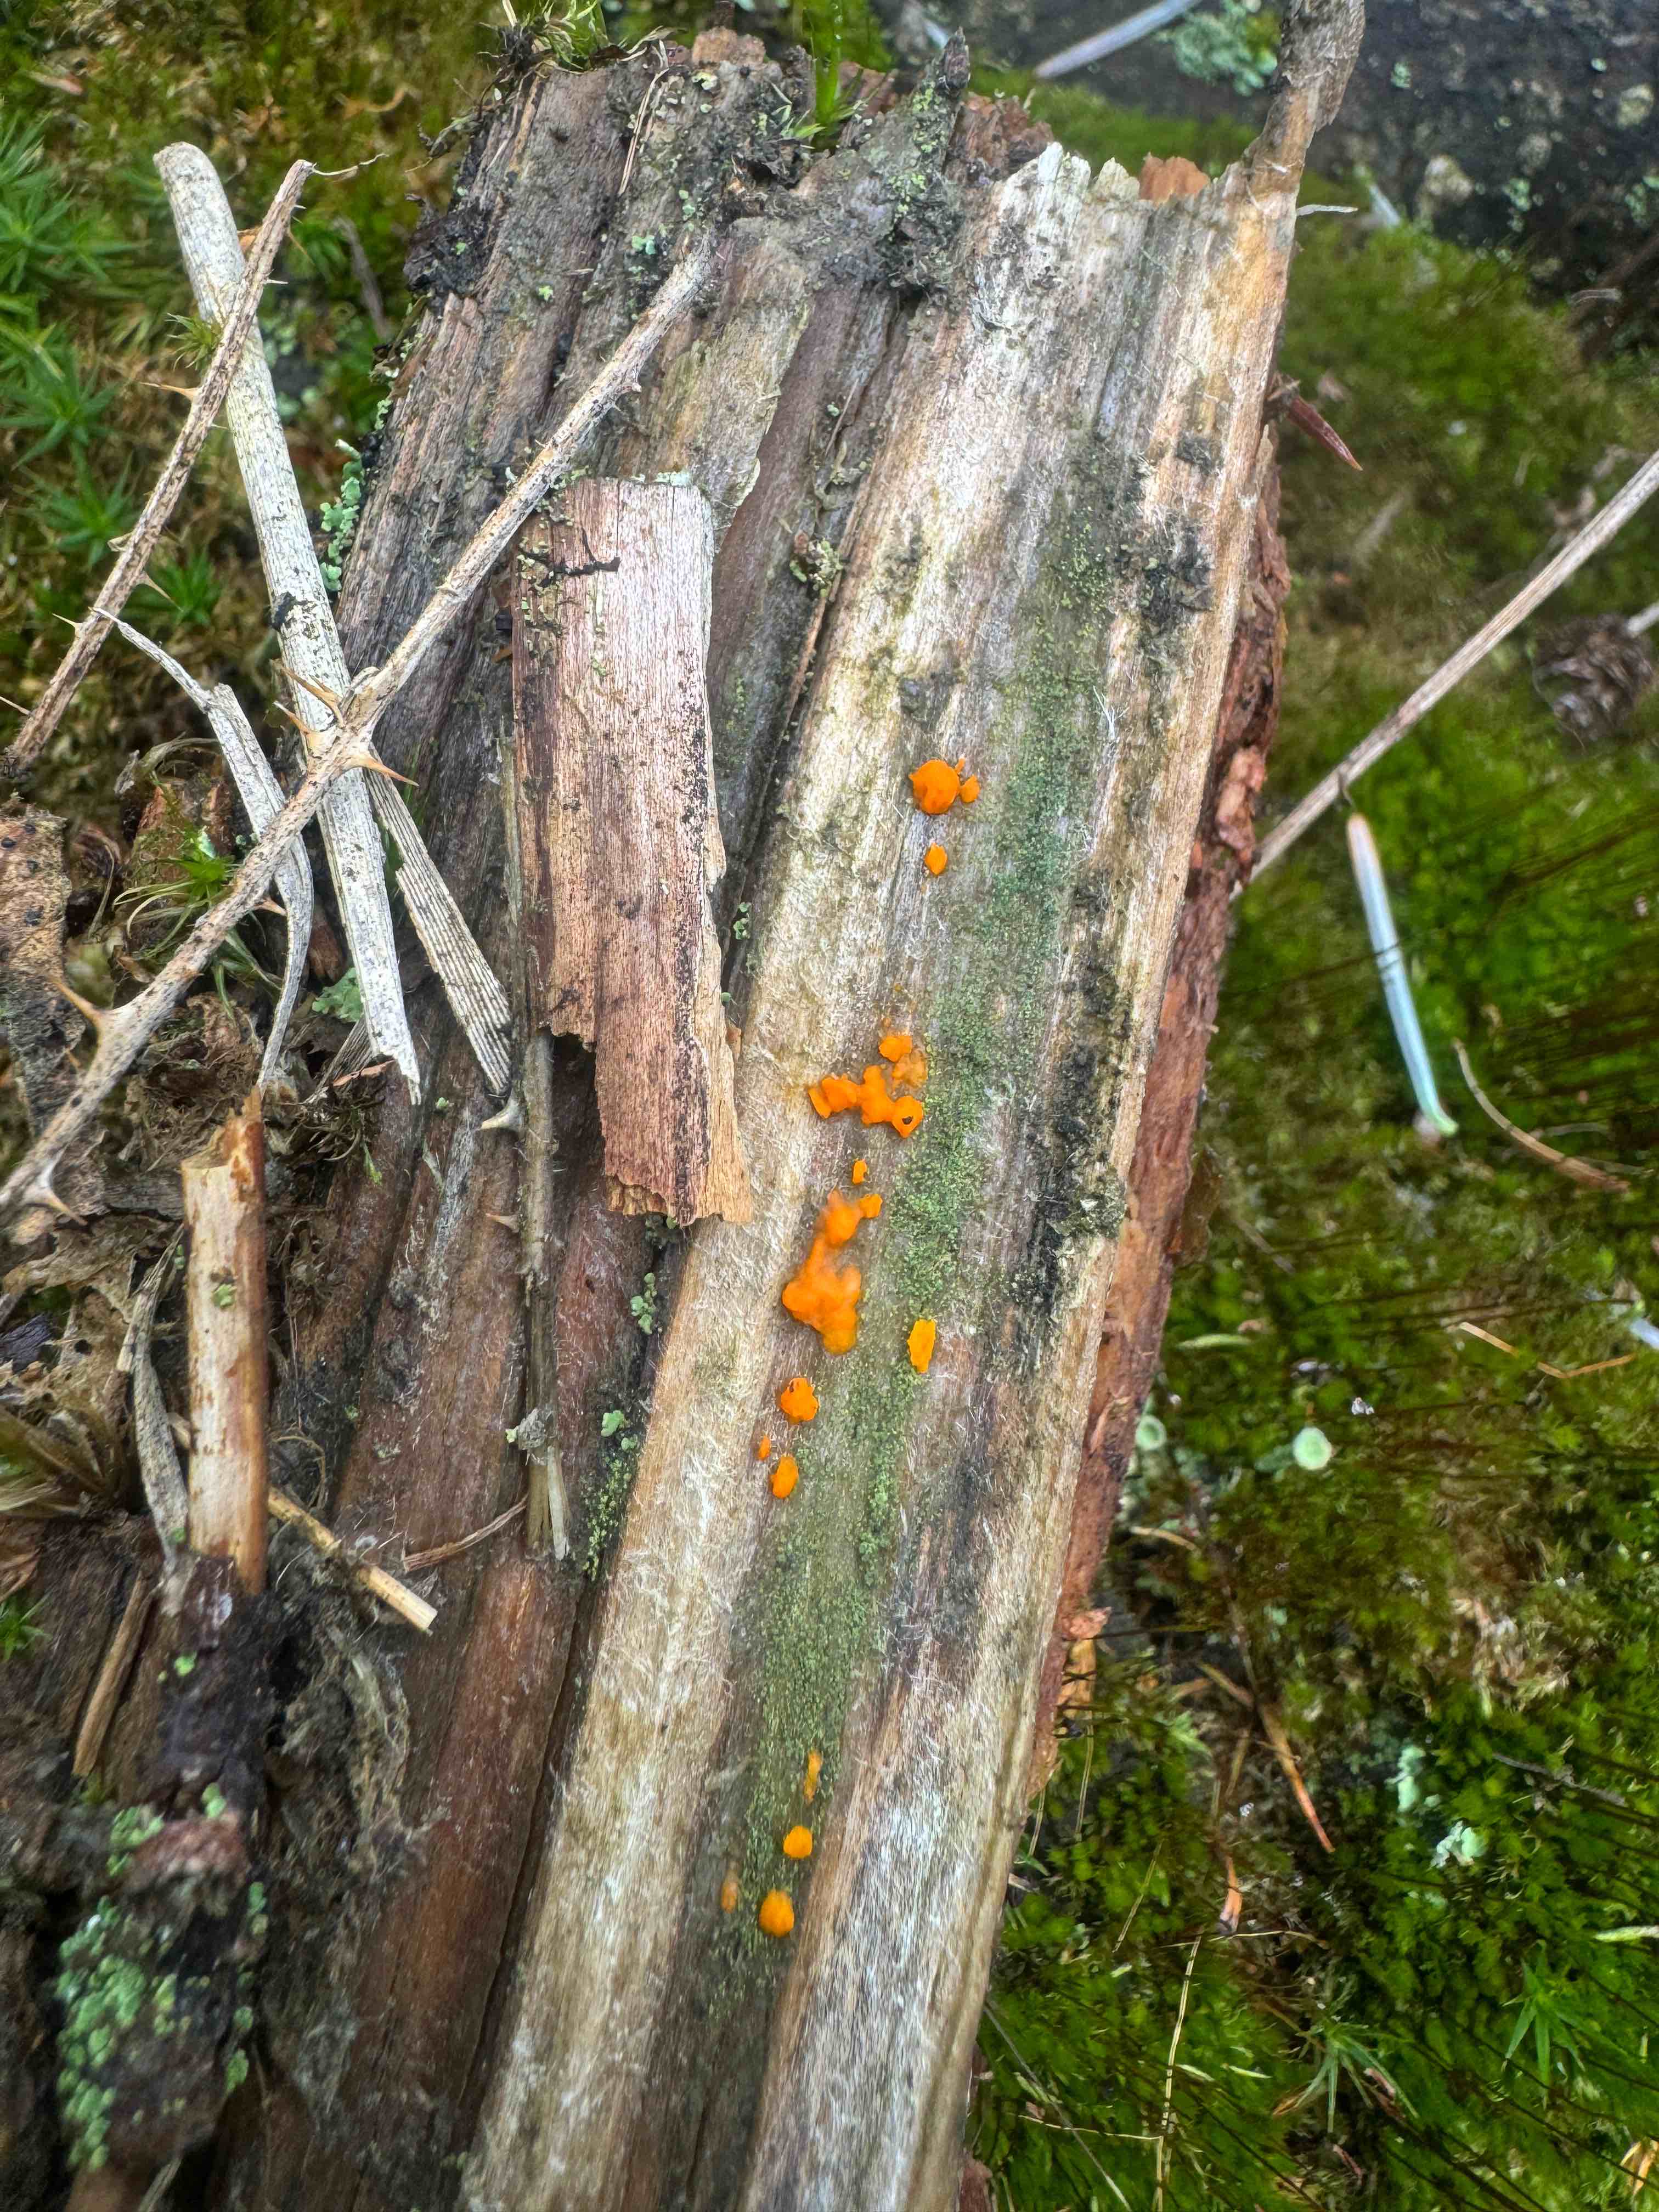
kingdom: Fungi
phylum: Basidiomycota
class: Dacrymycetes
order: Dacrymycetales
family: Dacrymycetaceae
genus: Dacrymyces
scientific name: Dacrymyces stillatus
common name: almindelig tåresvamp
